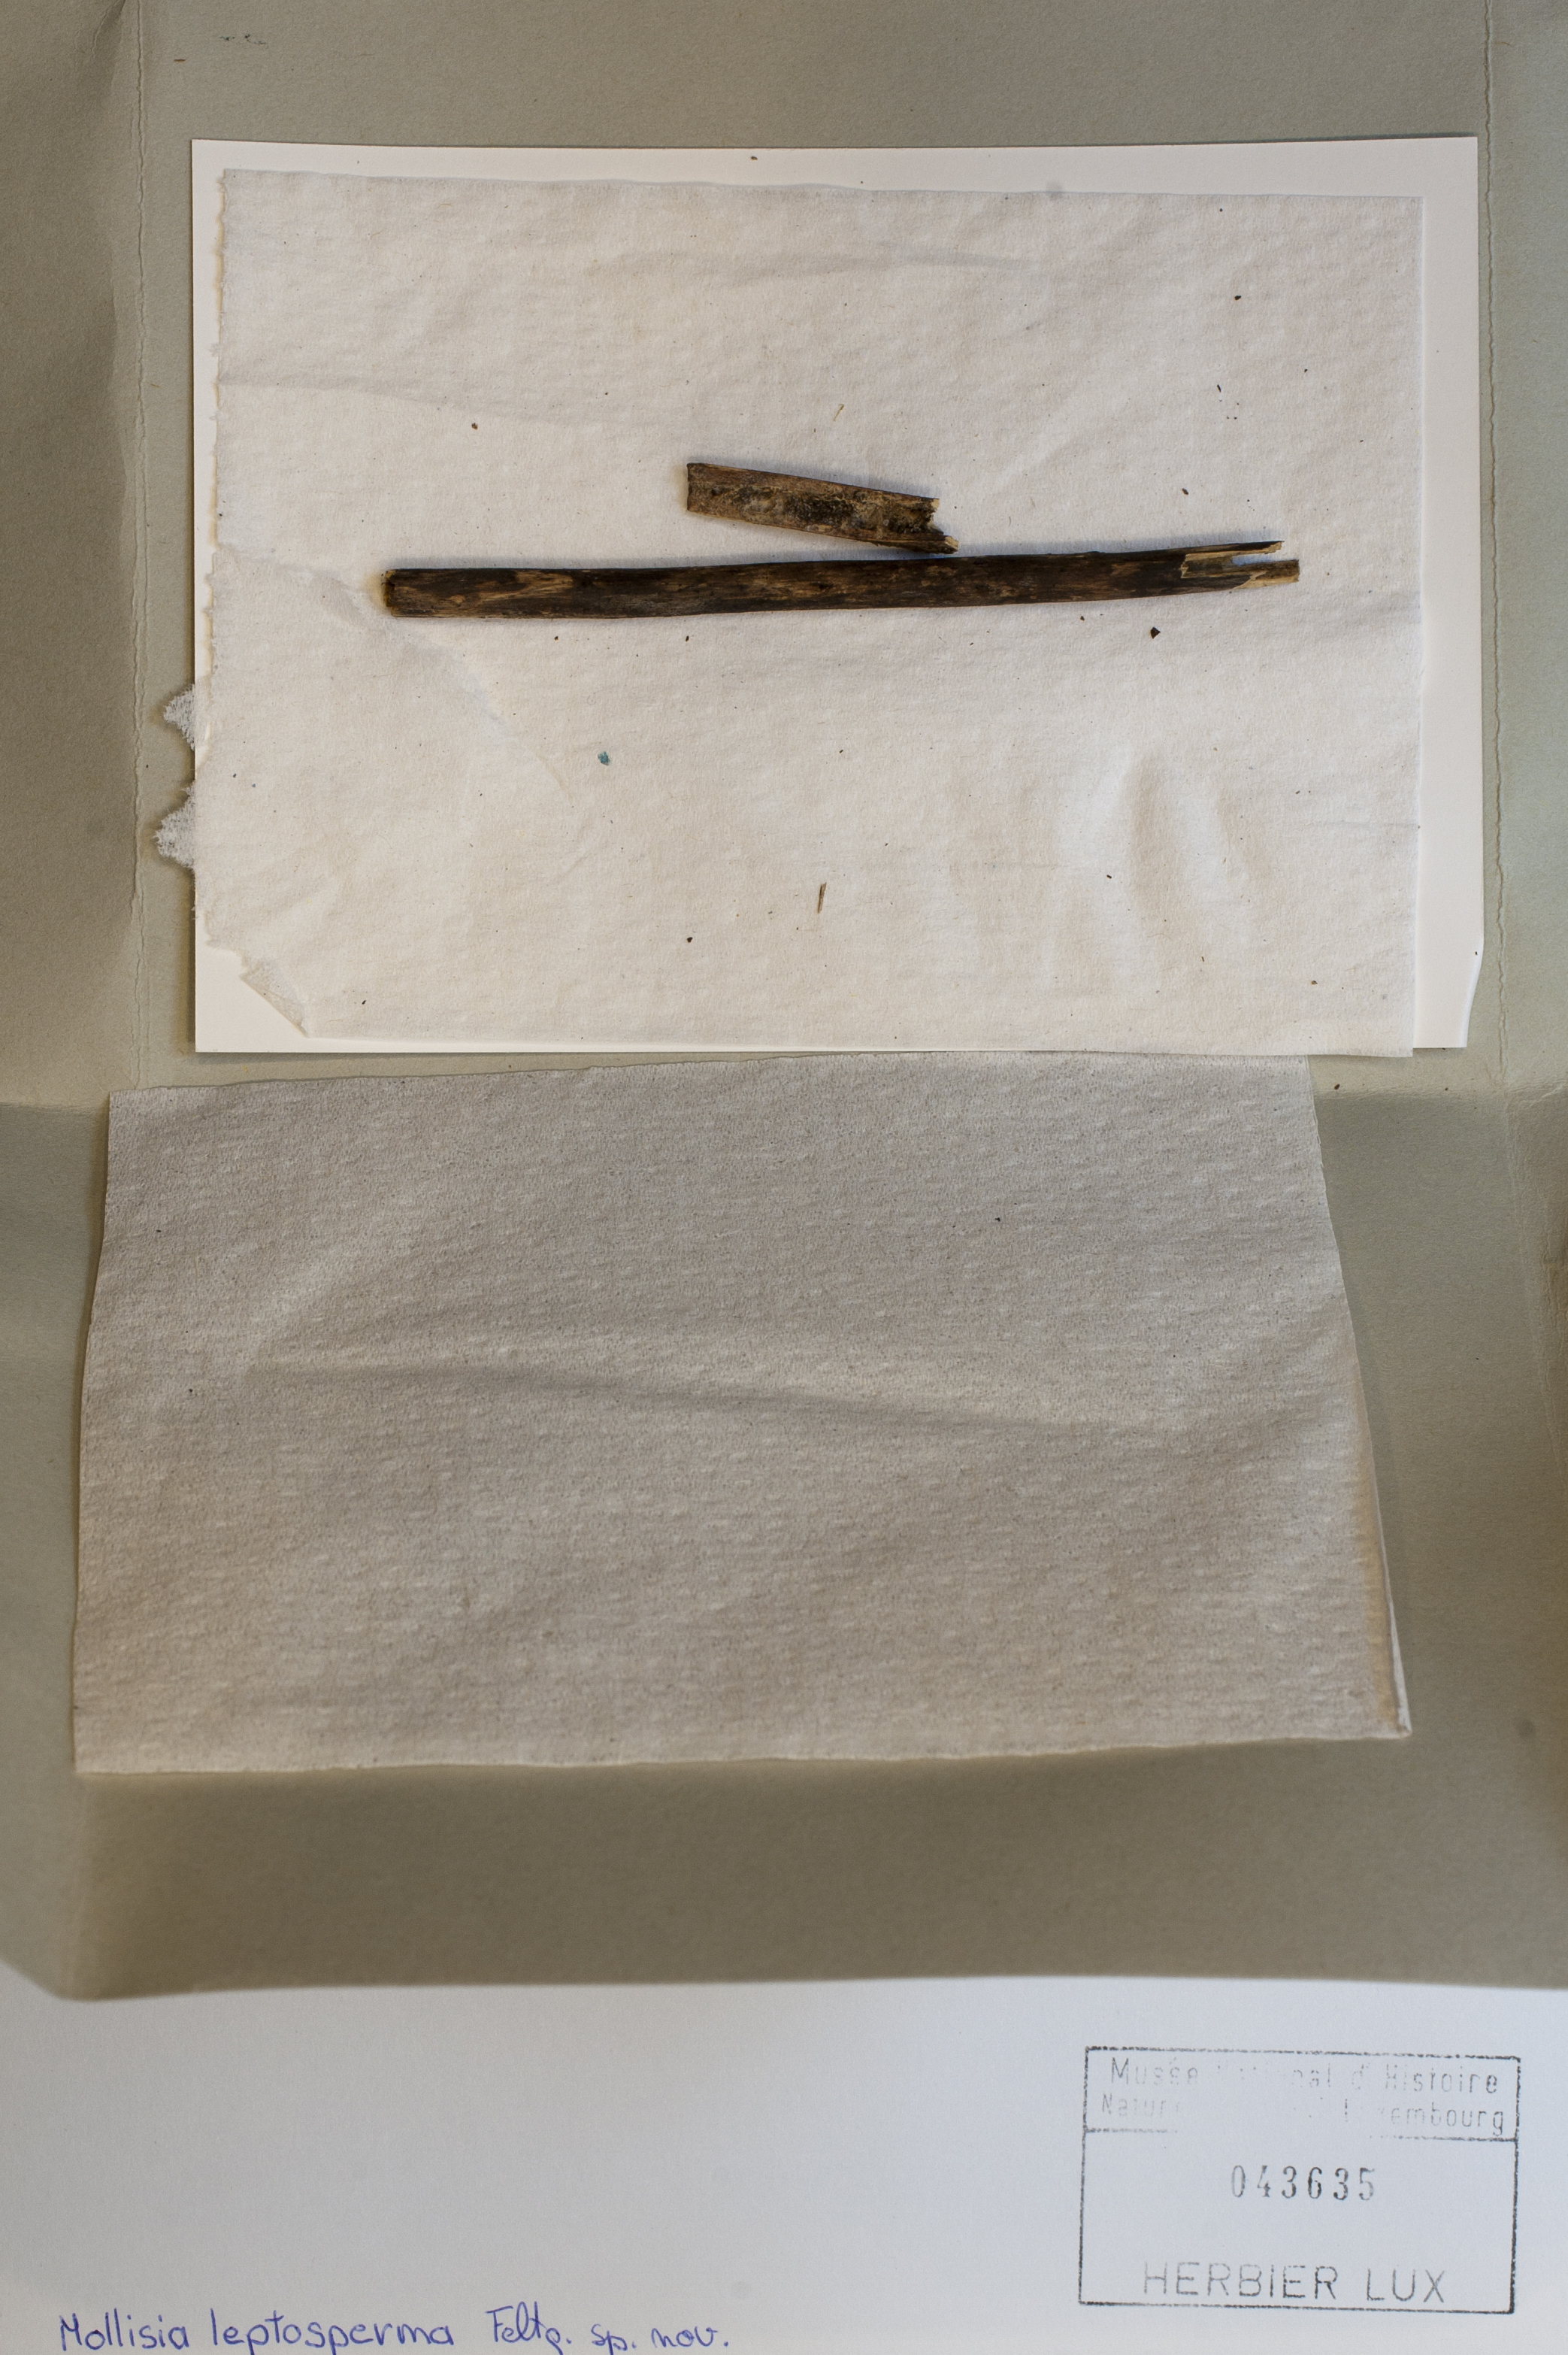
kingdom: Fungi
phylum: Ascomycota
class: Leotiomycetes
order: Helotiales
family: Mollisiaceae
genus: Mollisia
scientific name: Mollisia leptosperma
